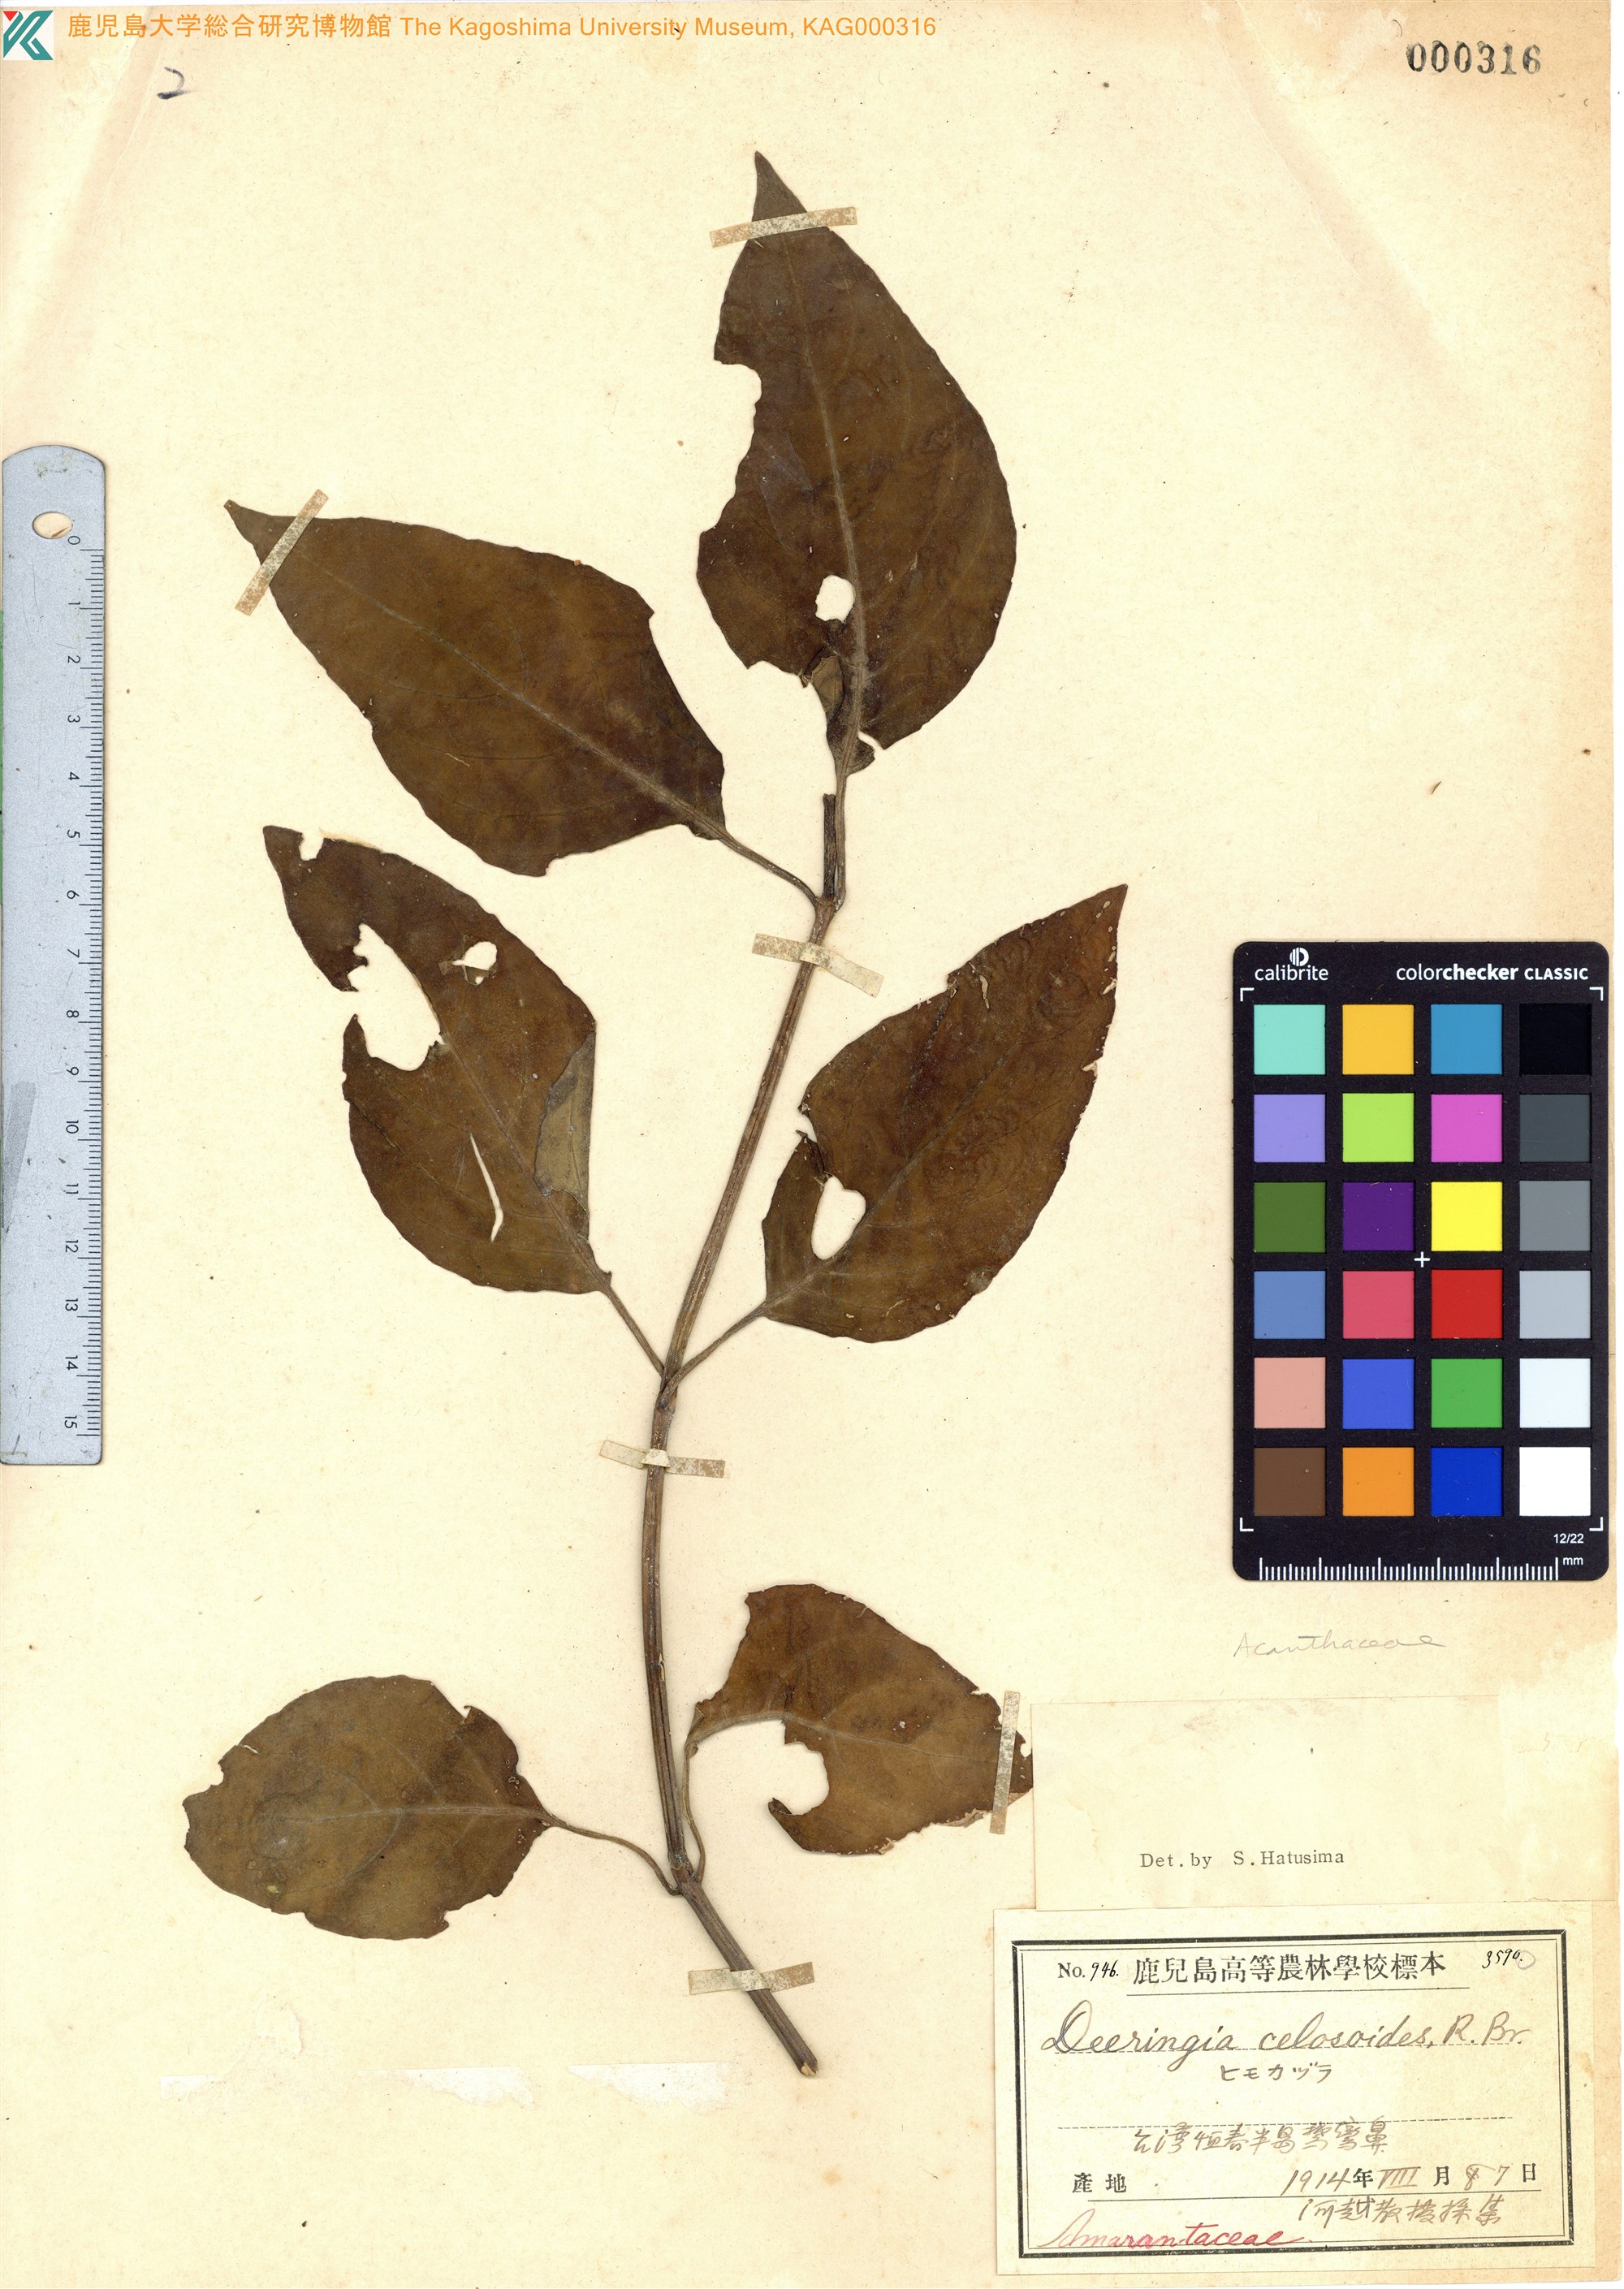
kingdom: Plantae
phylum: Tracheophyta
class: Magnoliopsida
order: Caryophyllales
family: Amaranthaceae
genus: Deeringia
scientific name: Deeringia amaranthoides
